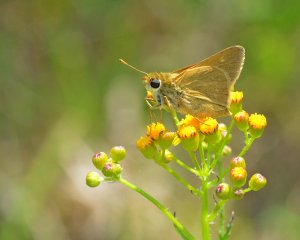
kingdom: Animalia
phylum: Arthropoda
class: Insecta
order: Lepidoptera
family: Hesperiidae
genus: Polites
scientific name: Polites
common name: Crossline Skipper
